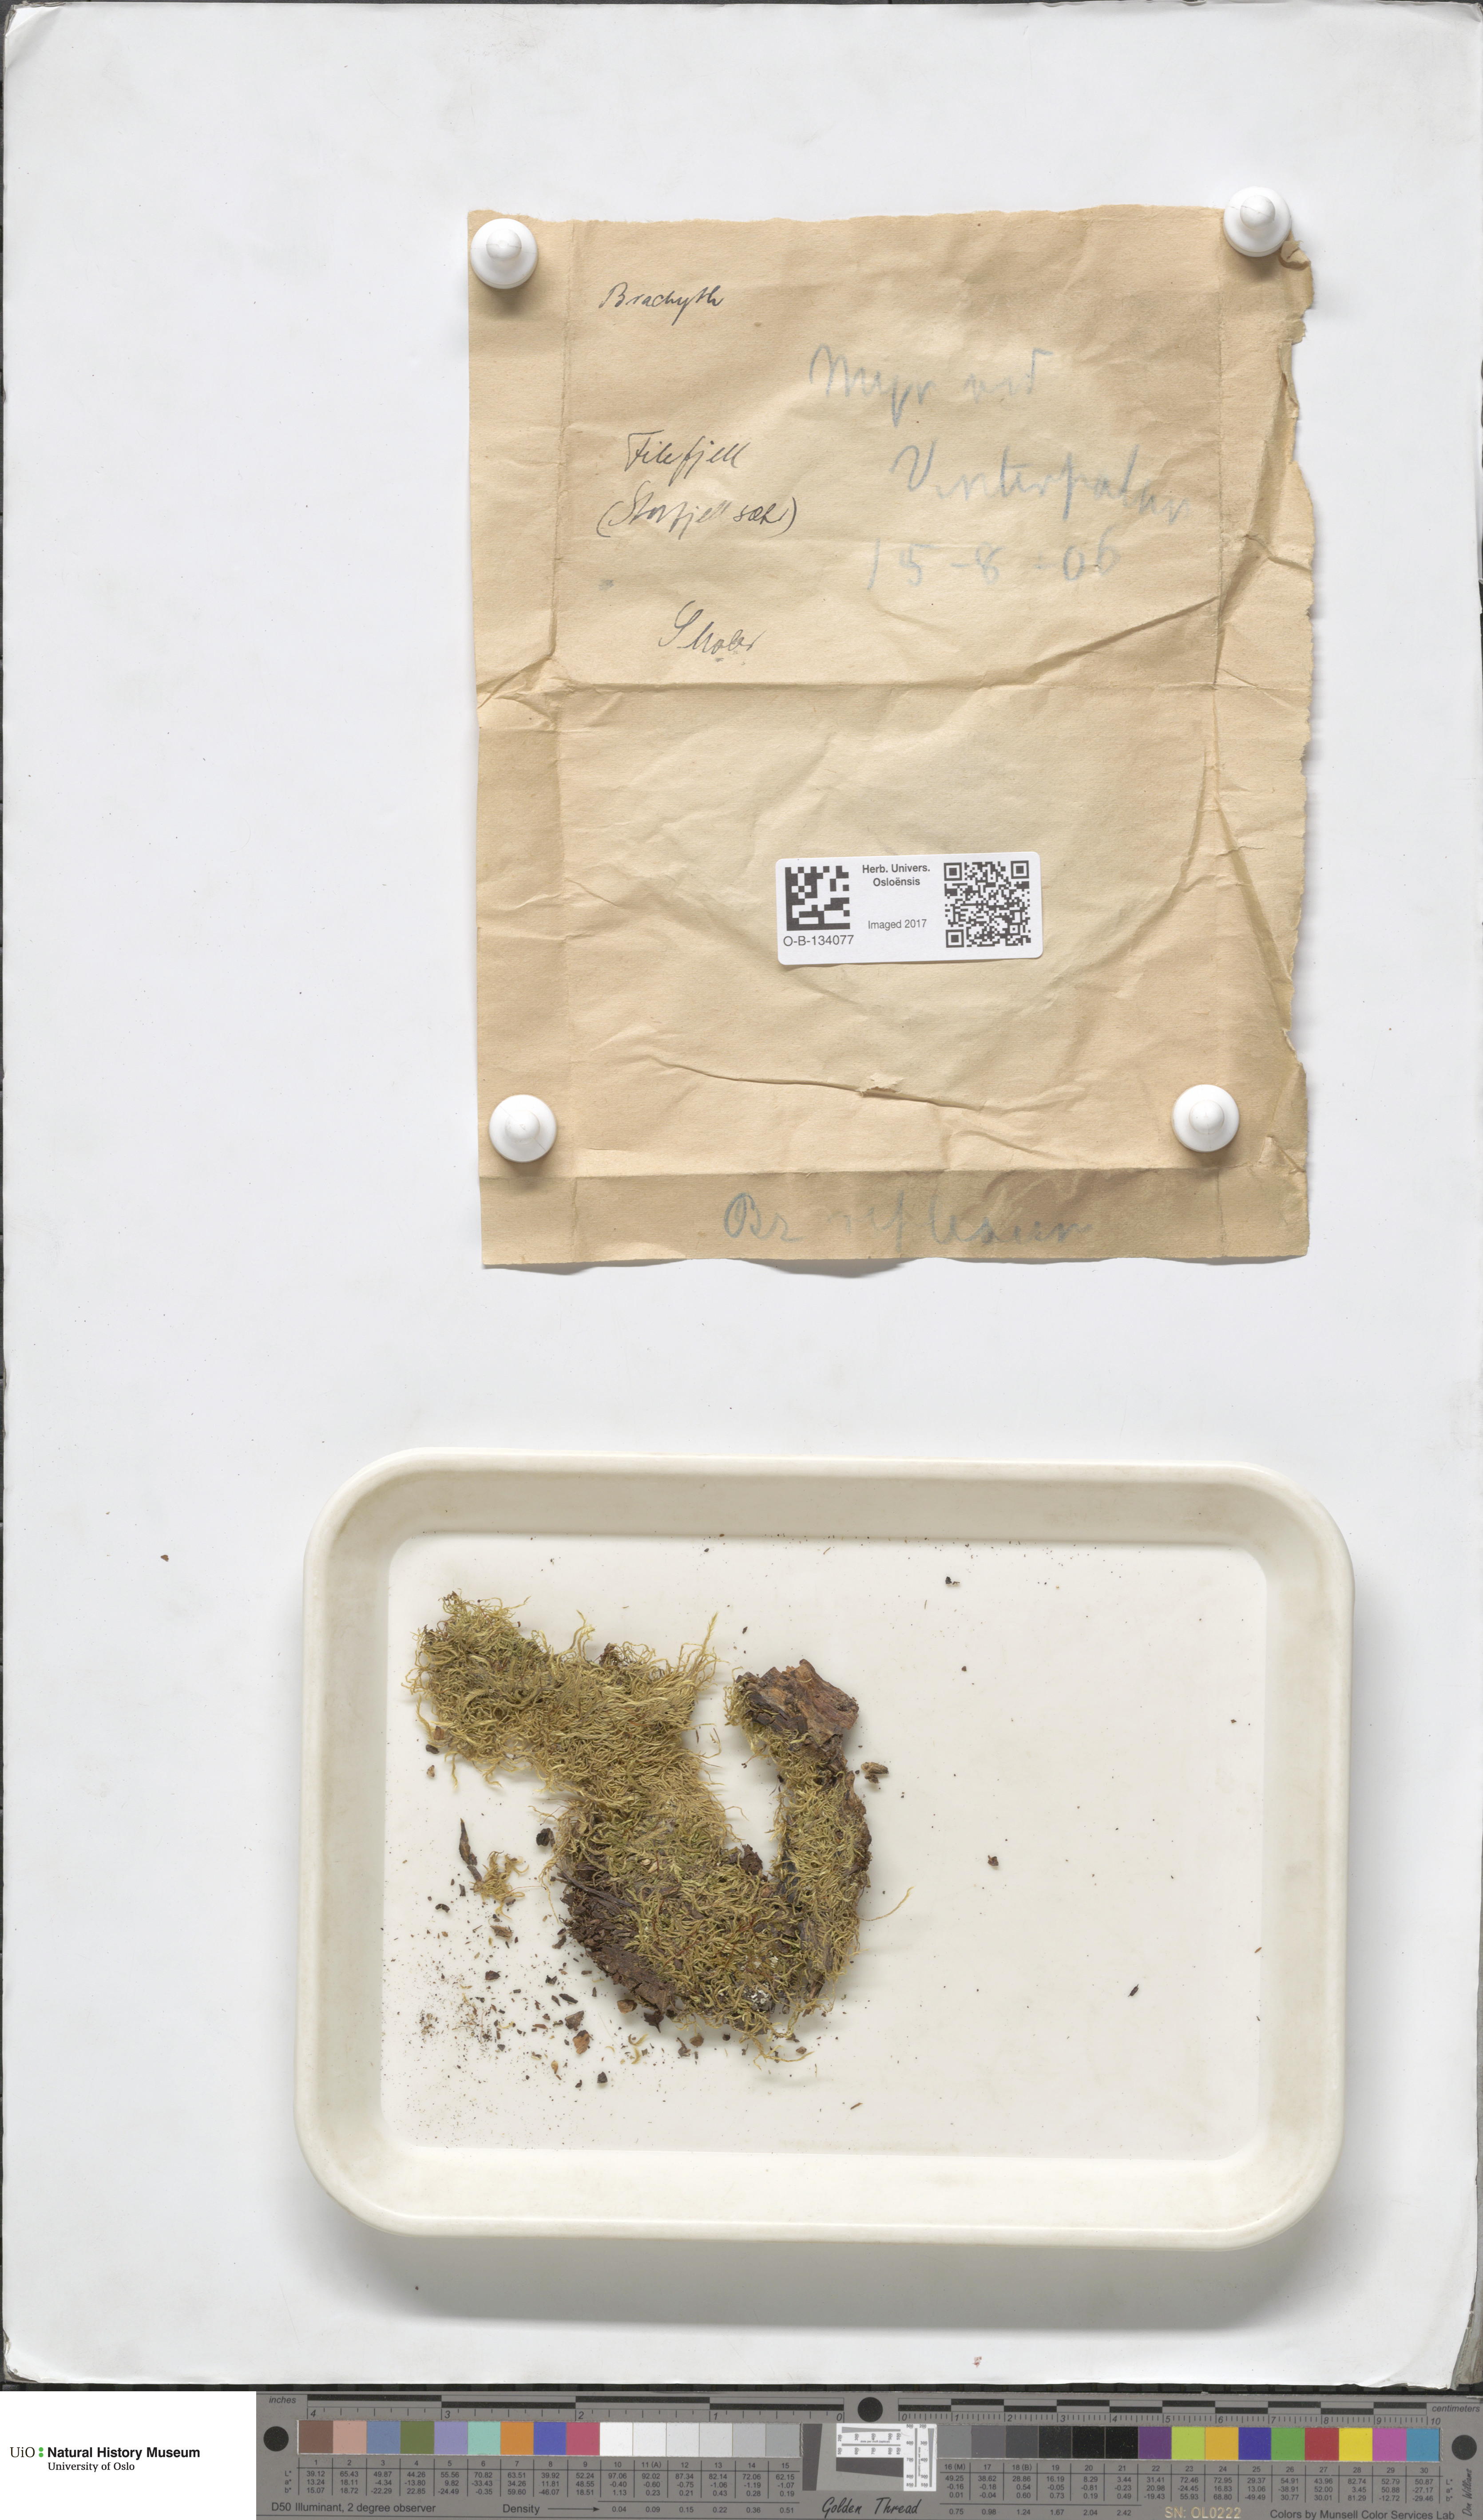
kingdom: Plantae
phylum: Bryophyta
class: Bryopsida
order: Hypnales
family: Brachytheciaceae
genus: Sciuro-hypnum
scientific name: Sciuro-hypnum reflexum
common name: Reflexed feather-moss
